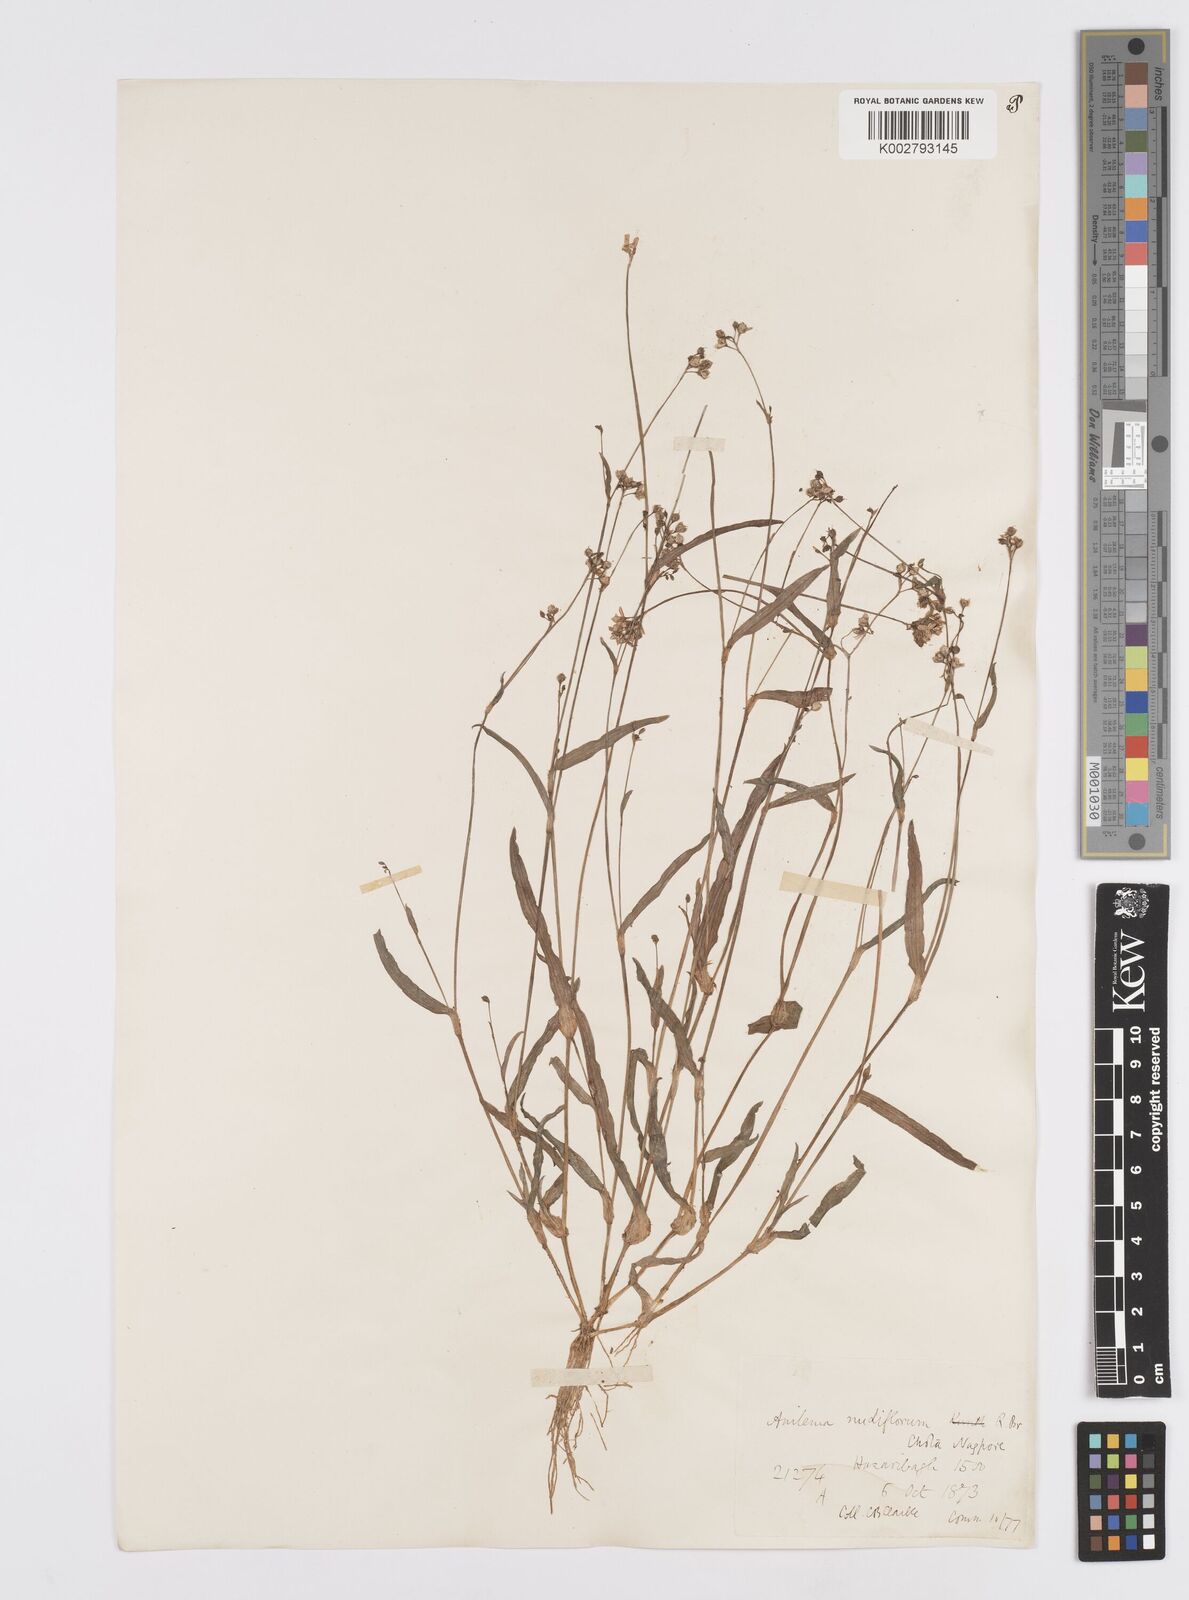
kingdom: Plantae
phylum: Tracheophyta
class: Liliopsida
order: Commelinales
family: Commelinaceae
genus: Murdannia
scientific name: Murdannia nudiflora
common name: Nakedstem dewflower
